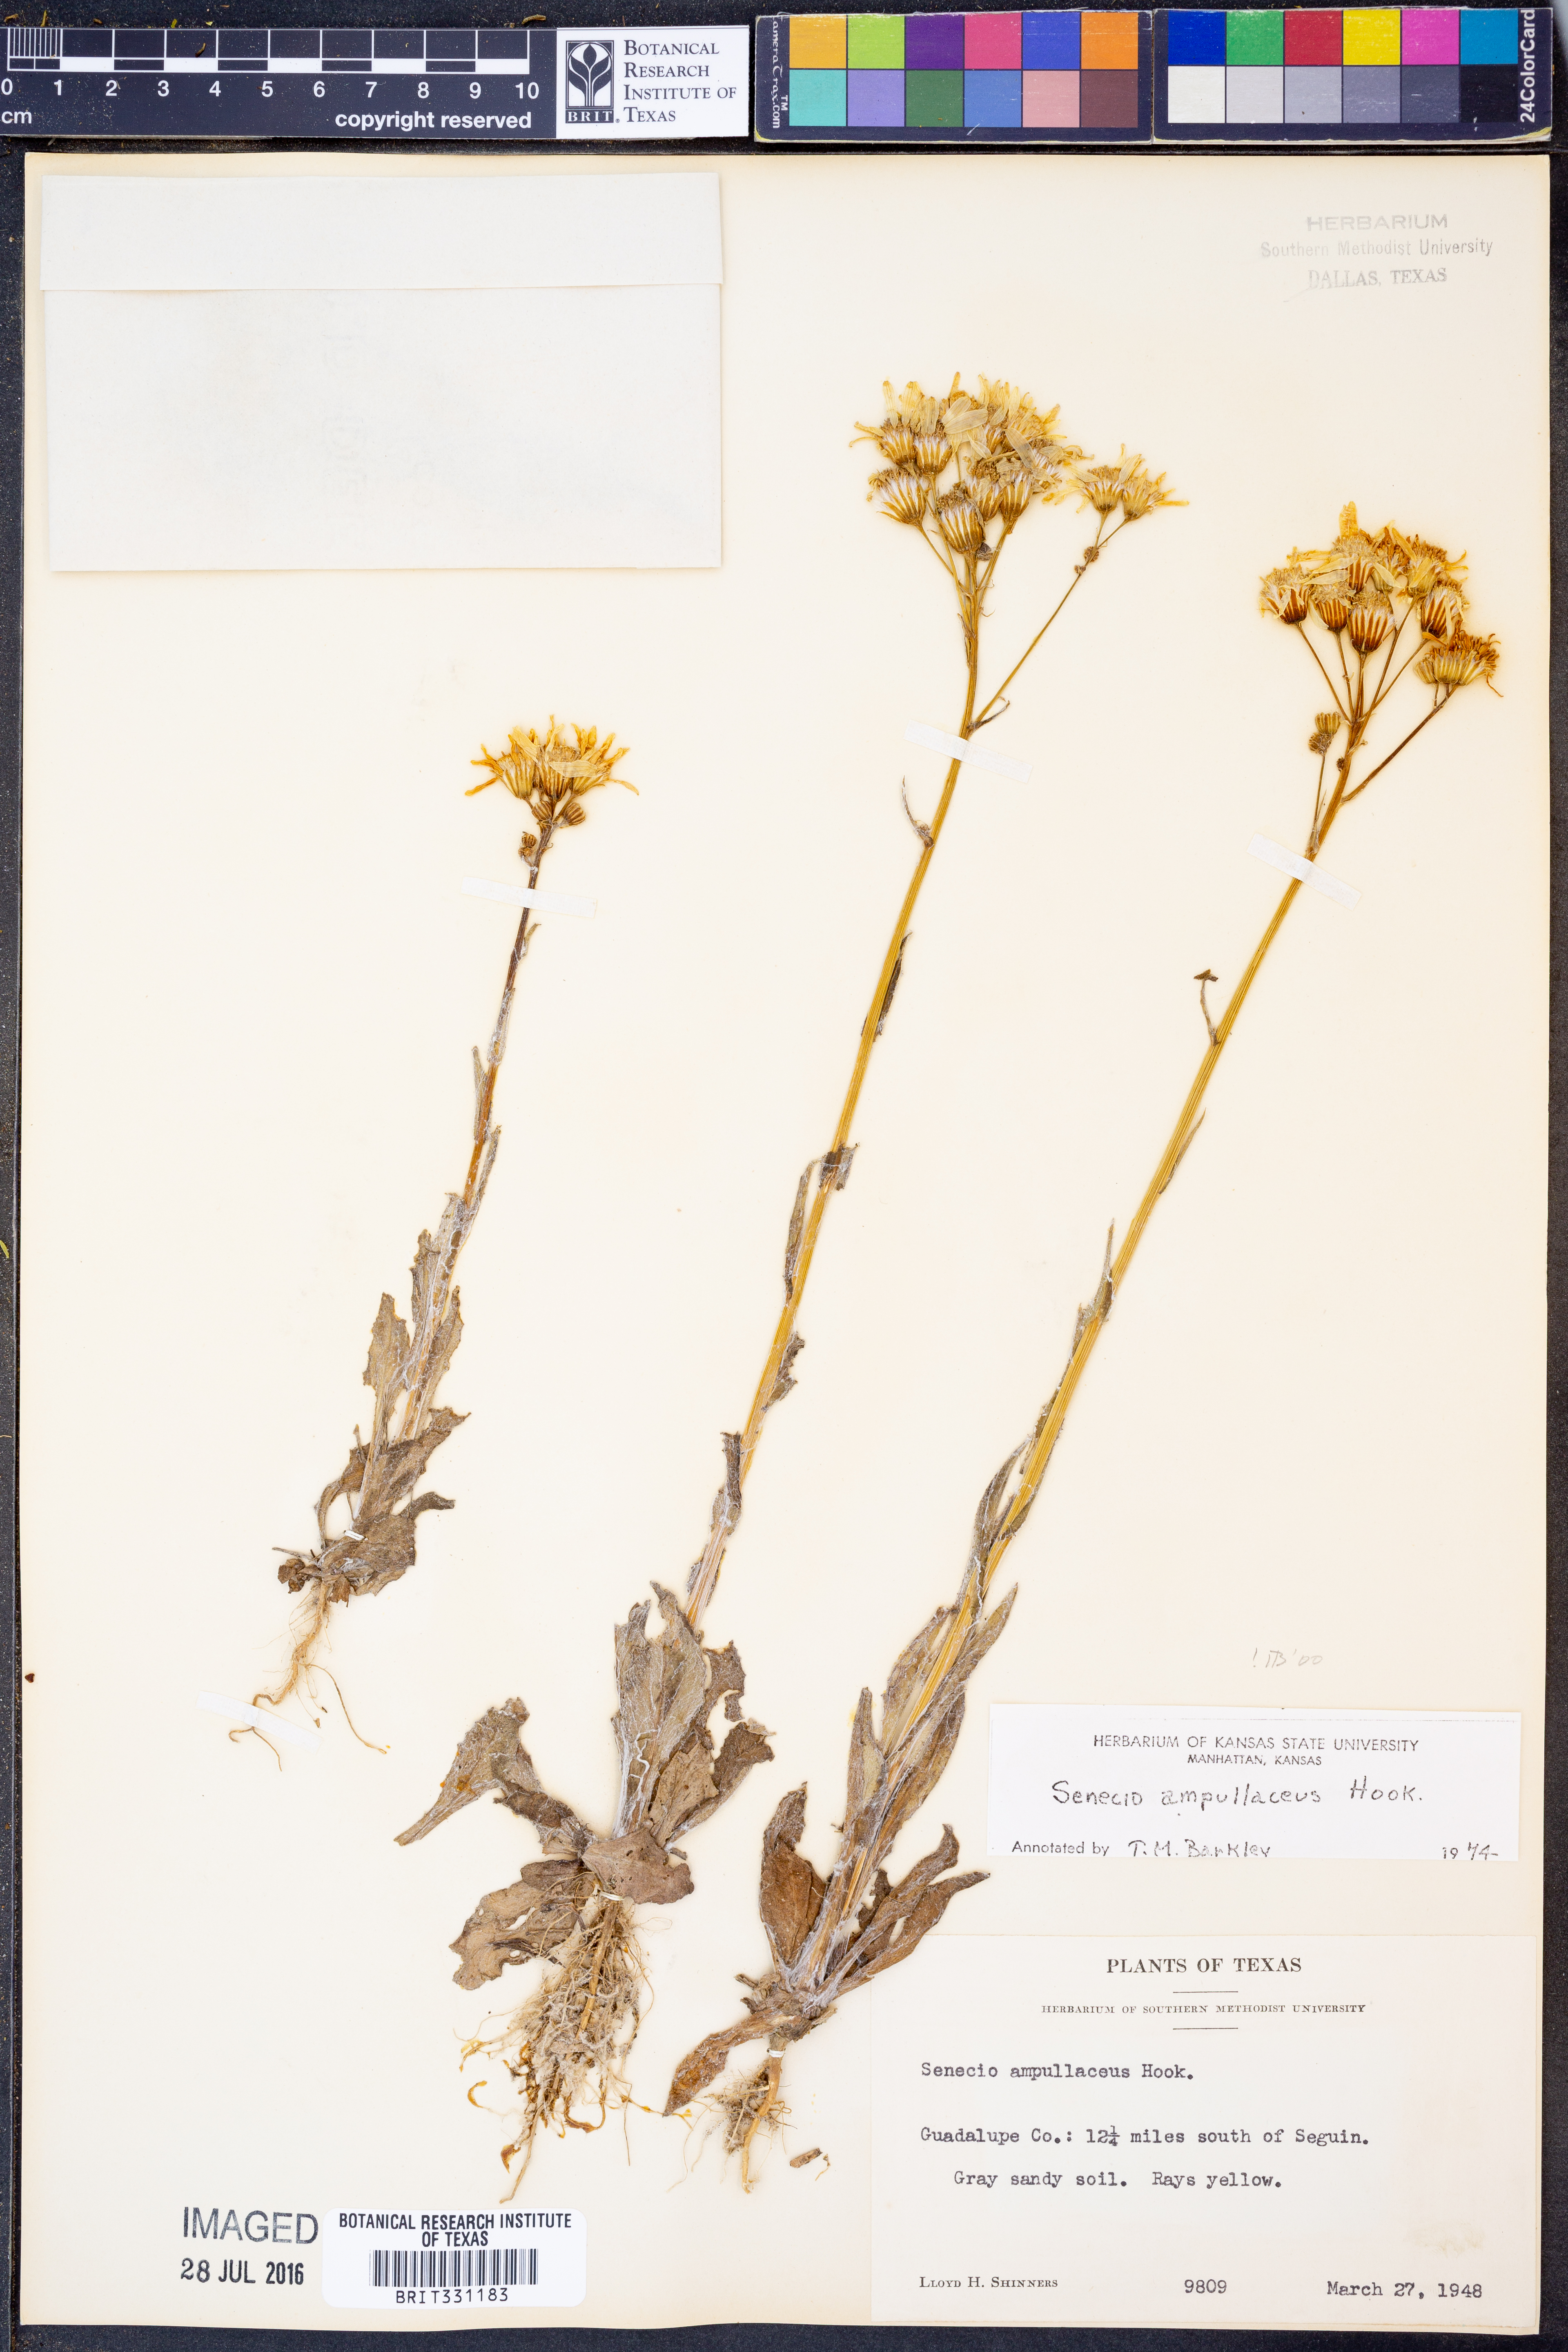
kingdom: Plantae
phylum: Tracheophyta
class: Magnoliopsida
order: Asterales
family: Asteraceae
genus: Senecio
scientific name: Senecio ampullaceus
